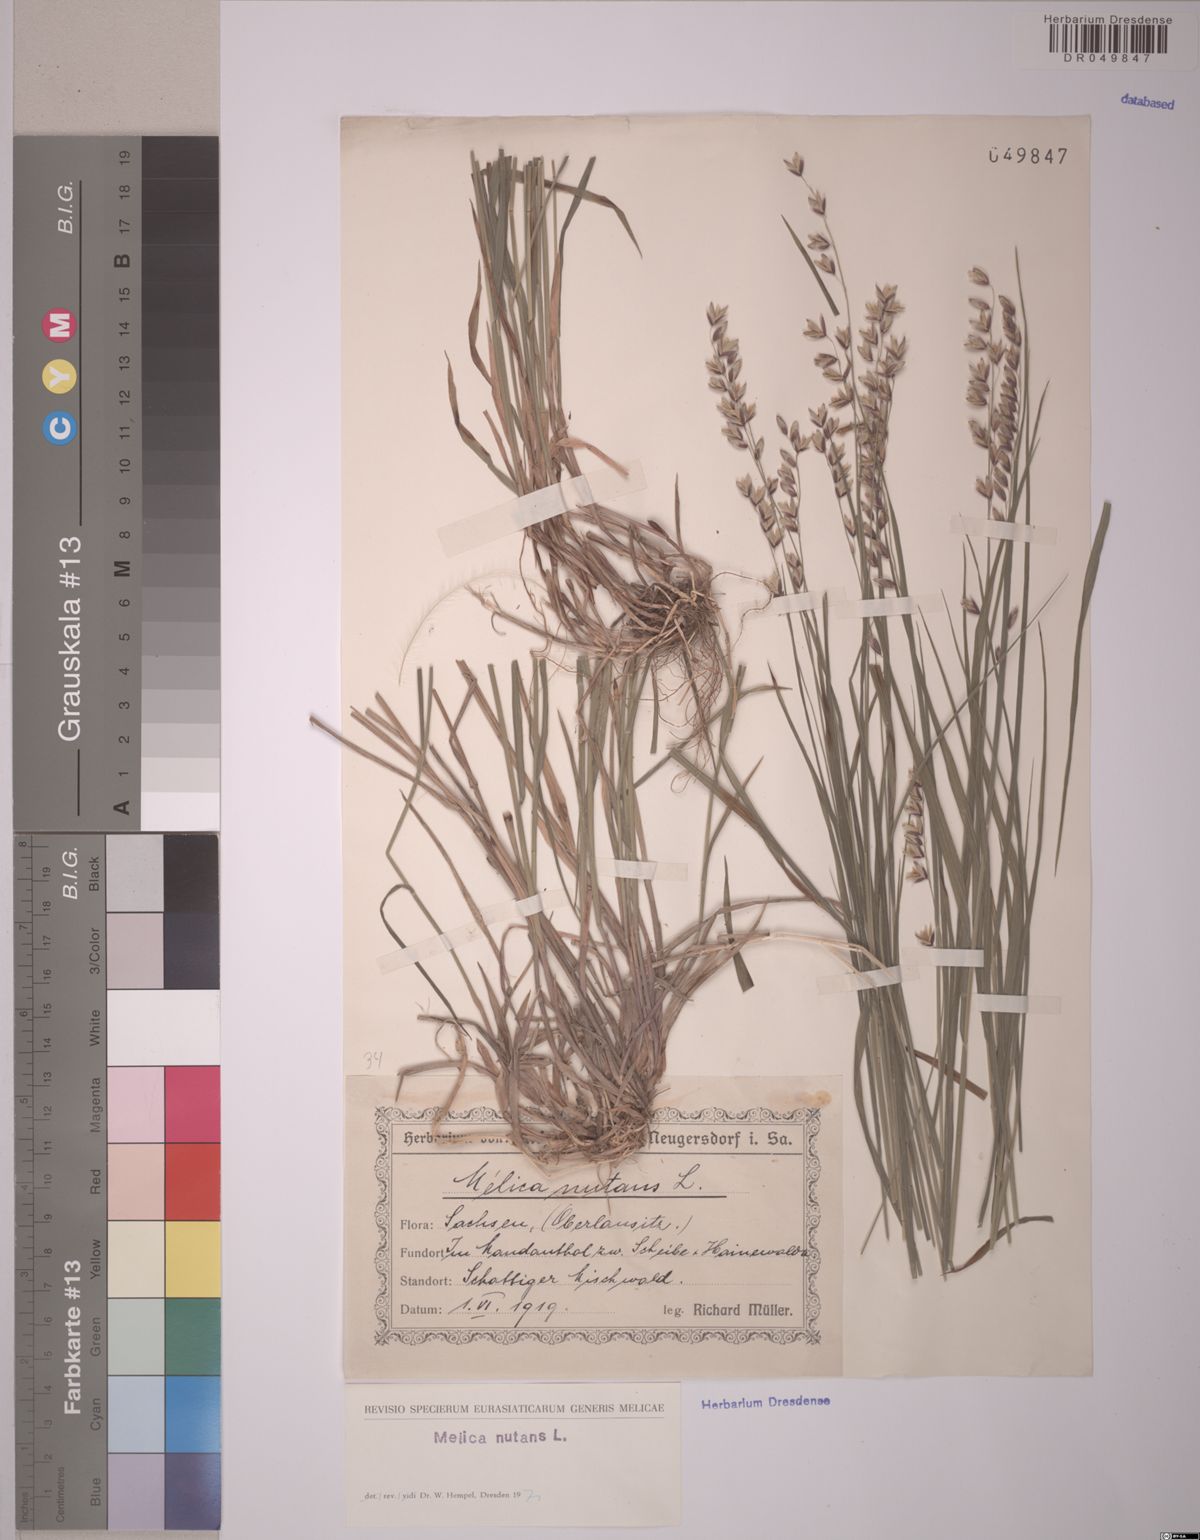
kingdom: Plantae
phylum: Tracheophyta
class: Liliopsida
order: Poales
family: Poaceae
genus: Melica
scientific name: Melica nutans
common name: Mountain melick
